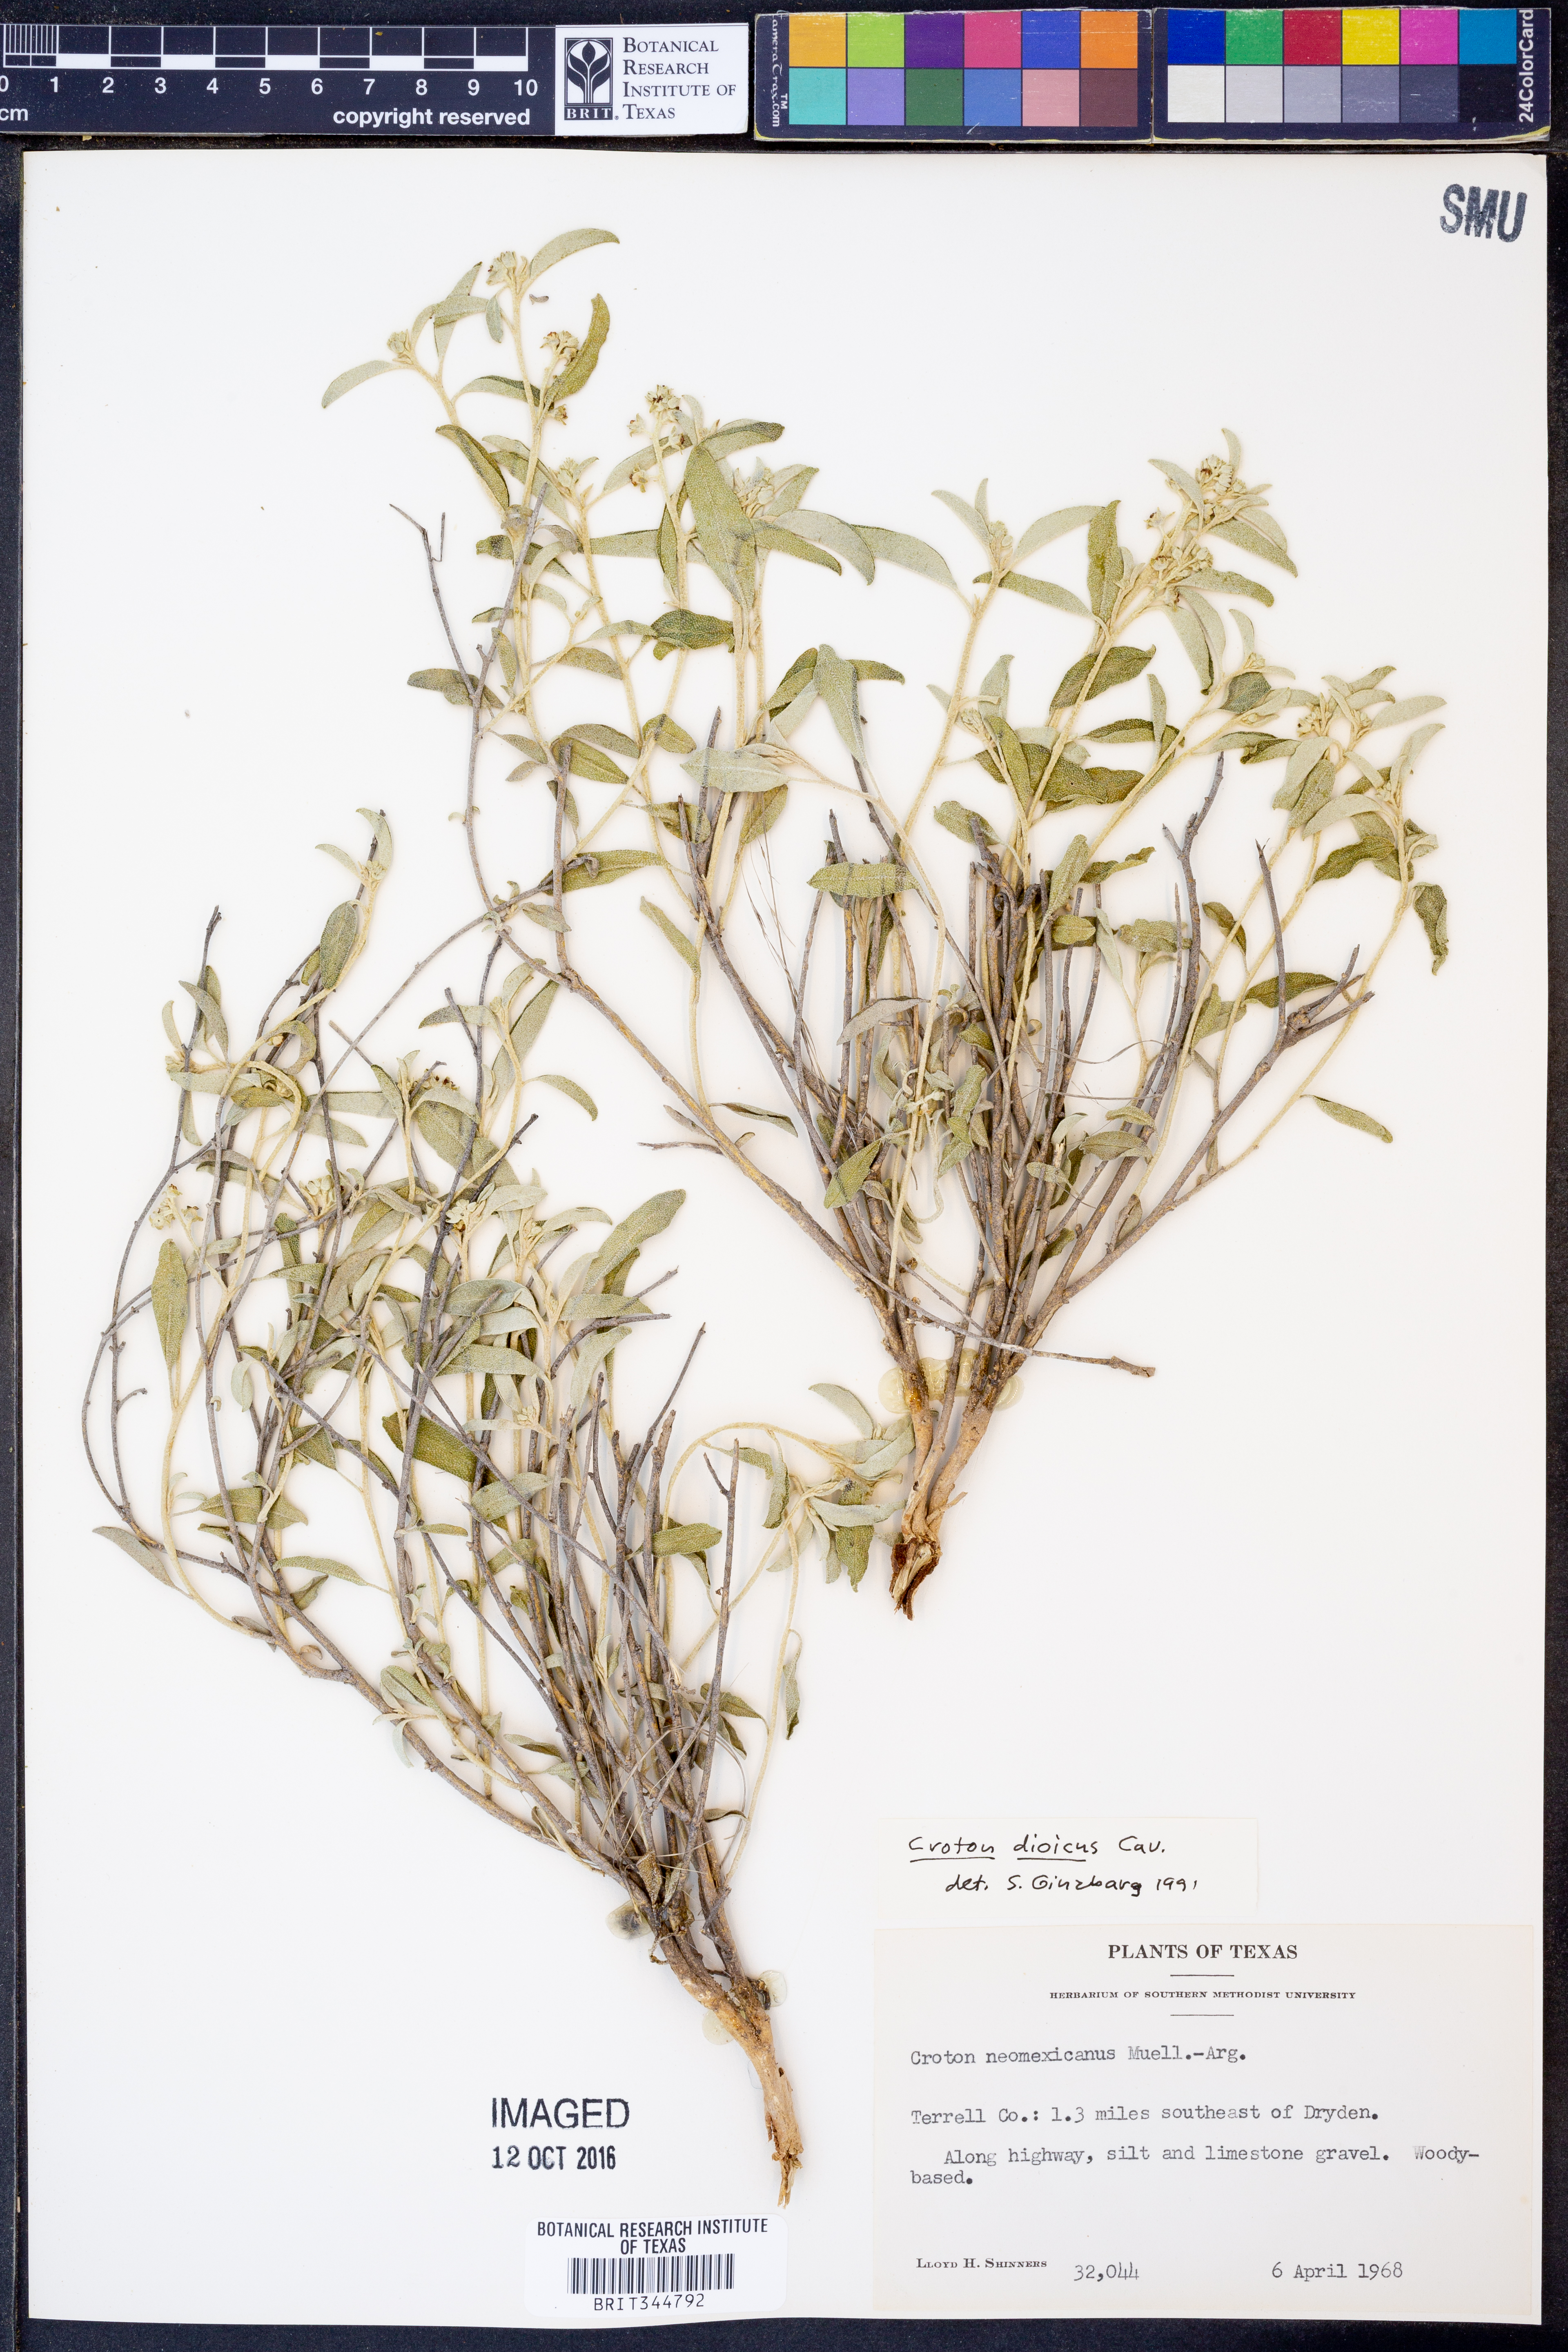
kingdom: Plantae
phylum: Tracheophyta
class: Magnoliopsida
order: Malpighiales
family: Euphorbiaceae
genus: Croton
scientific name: Croton dioicus
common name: Grassland croton
